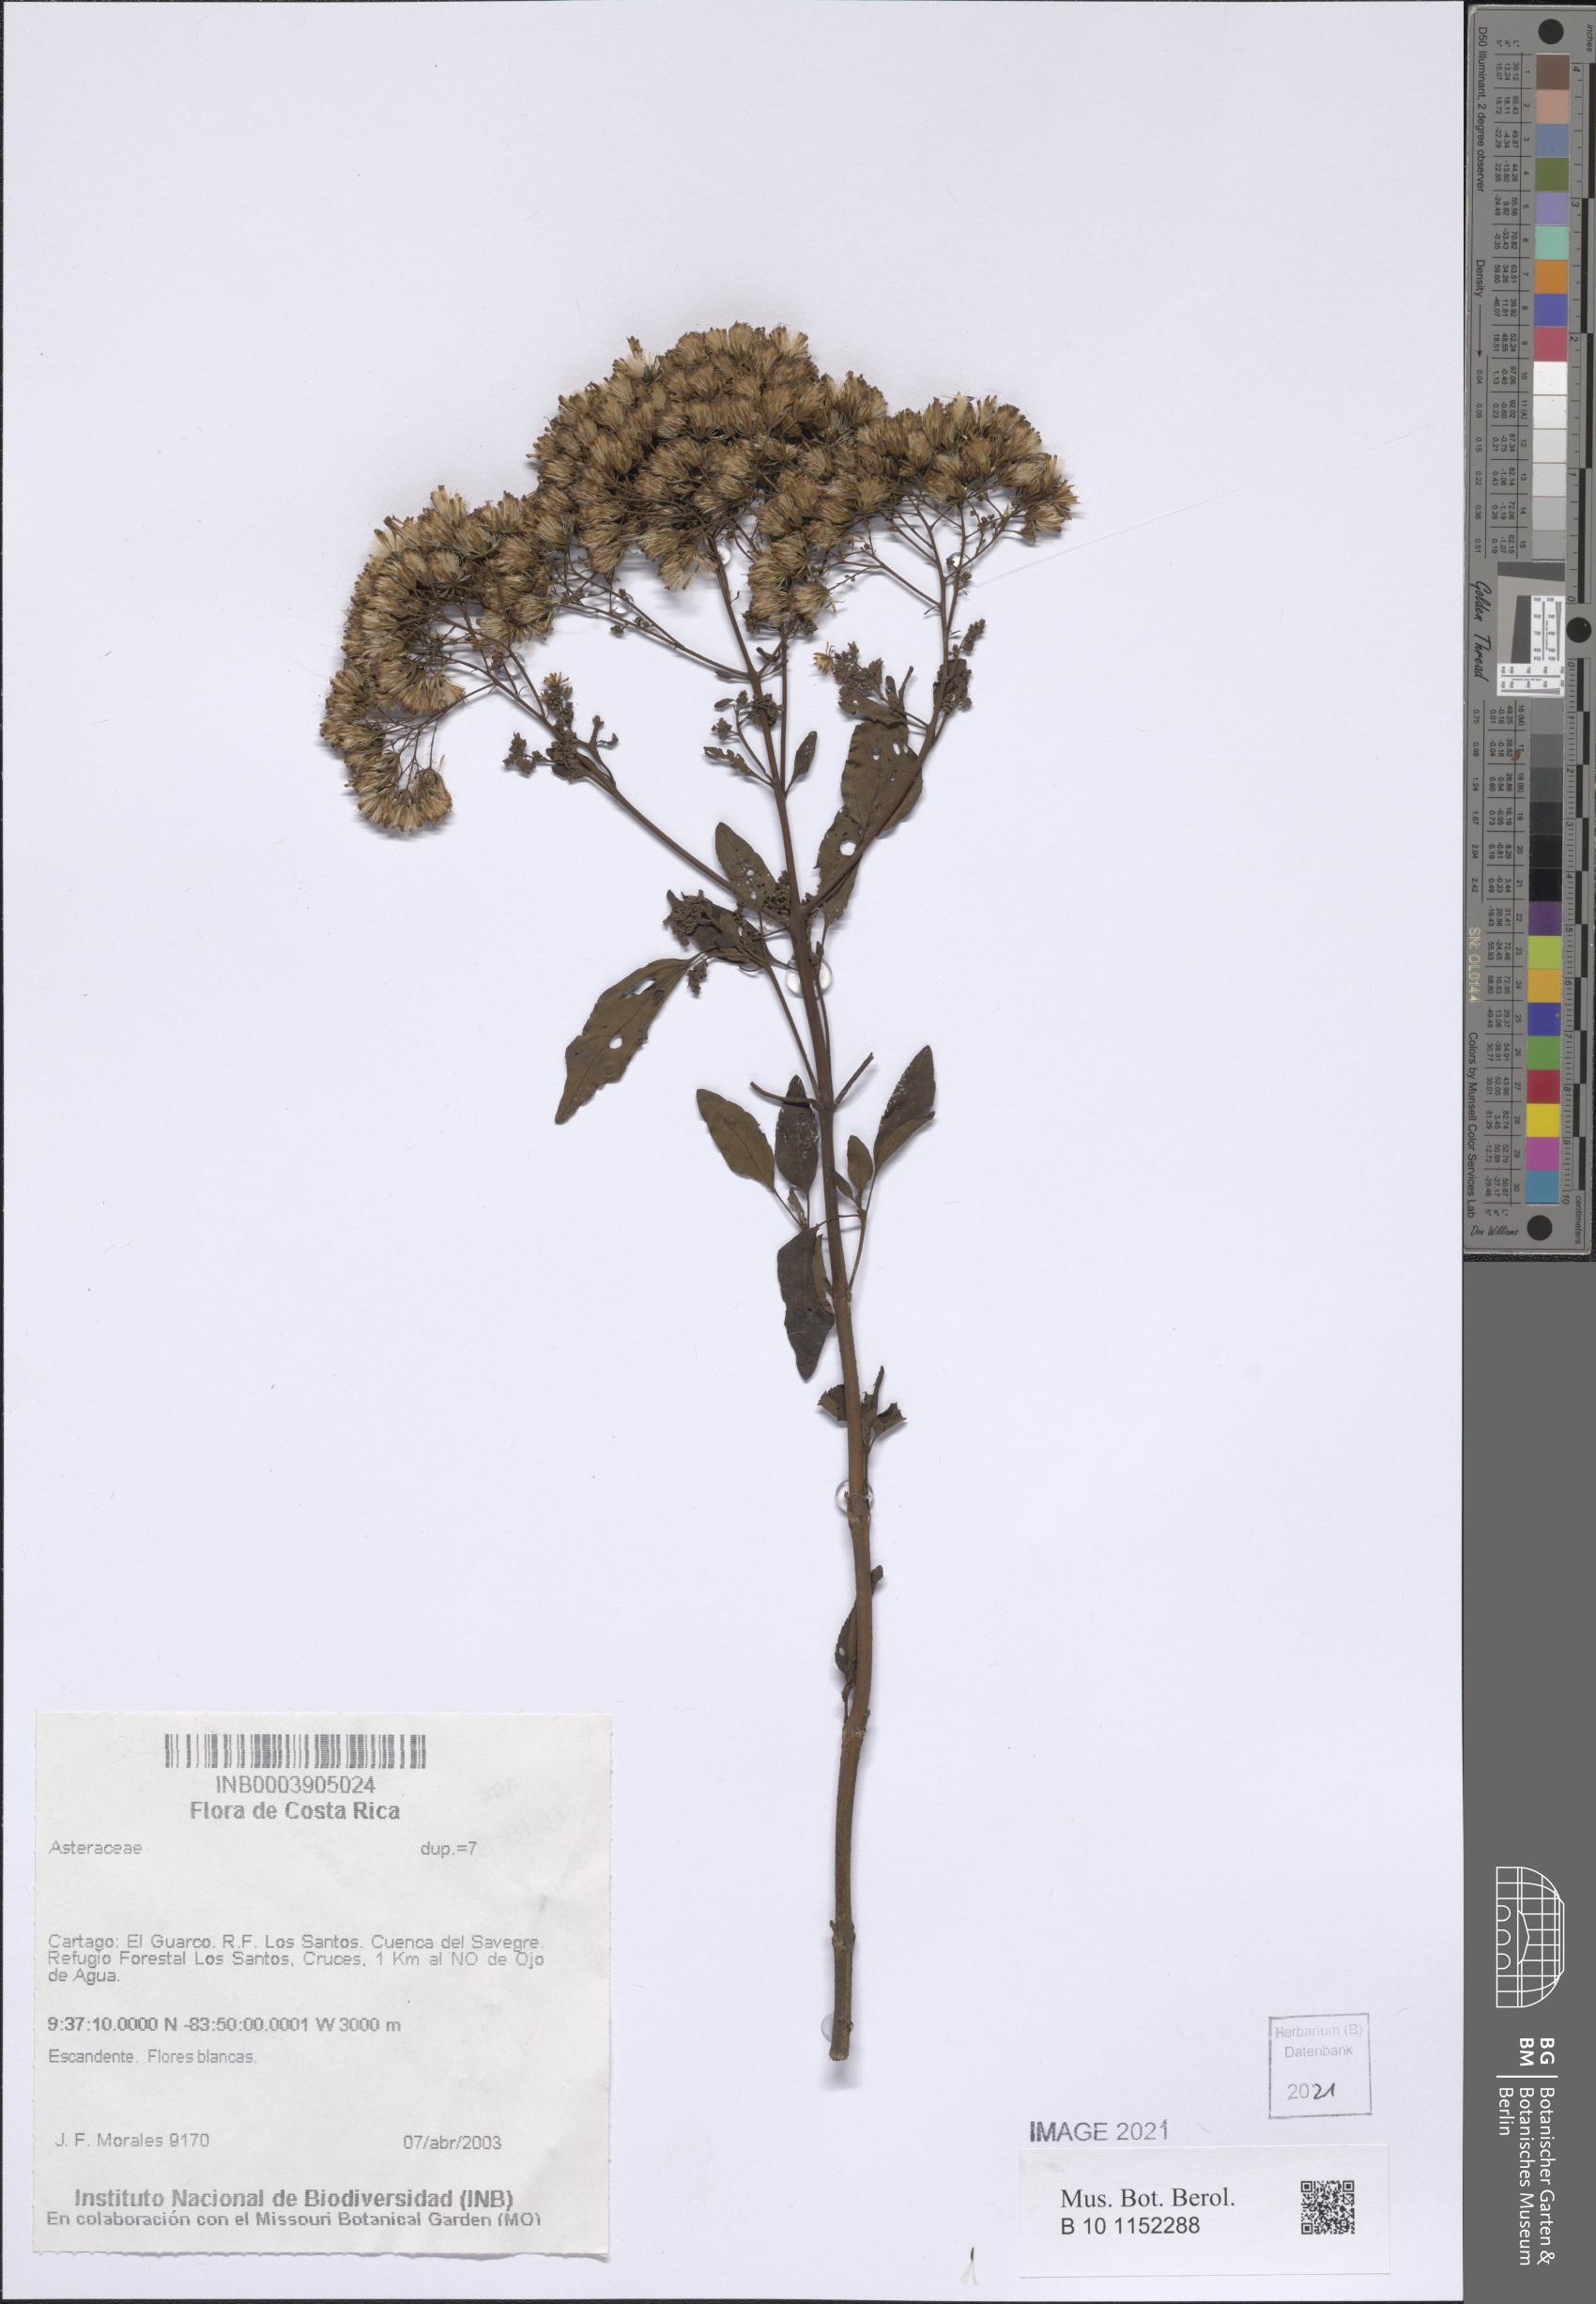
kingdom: Plantae
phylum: Tracheophyta
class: Magnoliopsida
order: Asterales
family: Asteraceae
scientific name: Asteraceae
